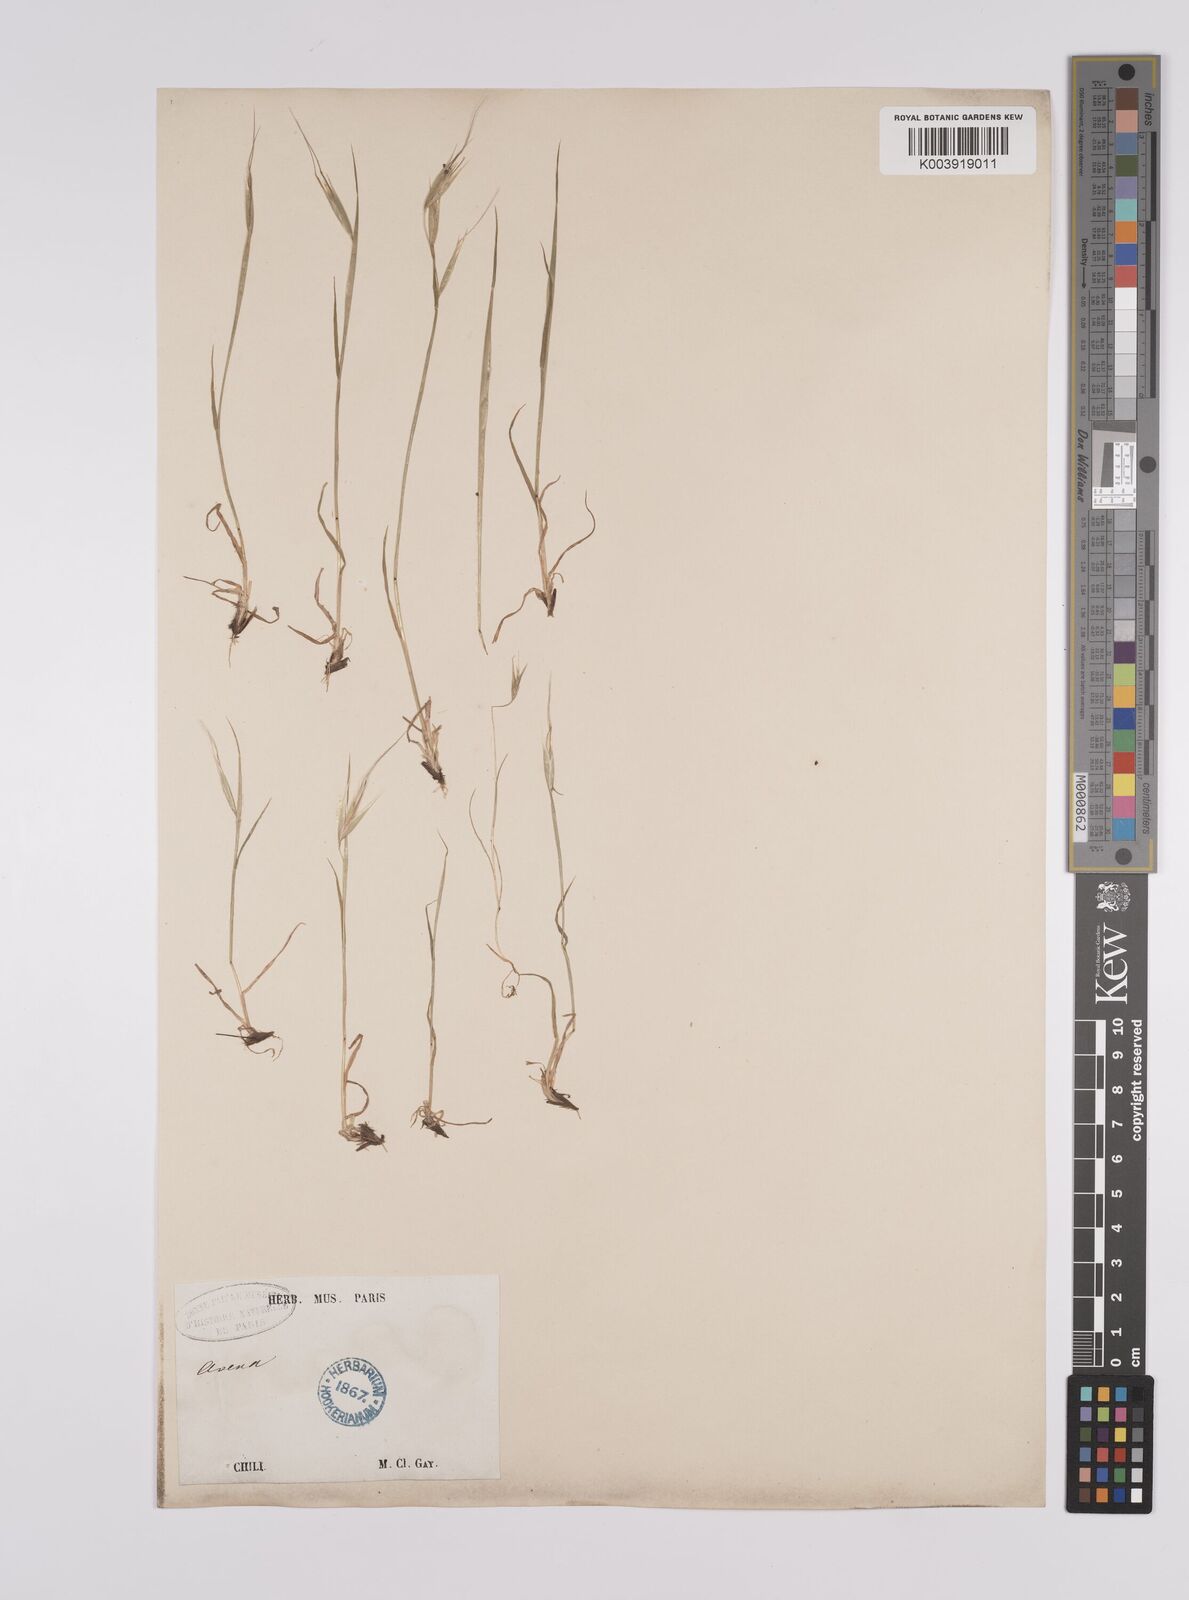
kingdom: Plantae
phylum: Tracheophyta
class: Liliopsida
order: Poales
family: Poaceae
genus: Avena
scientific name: Avena
